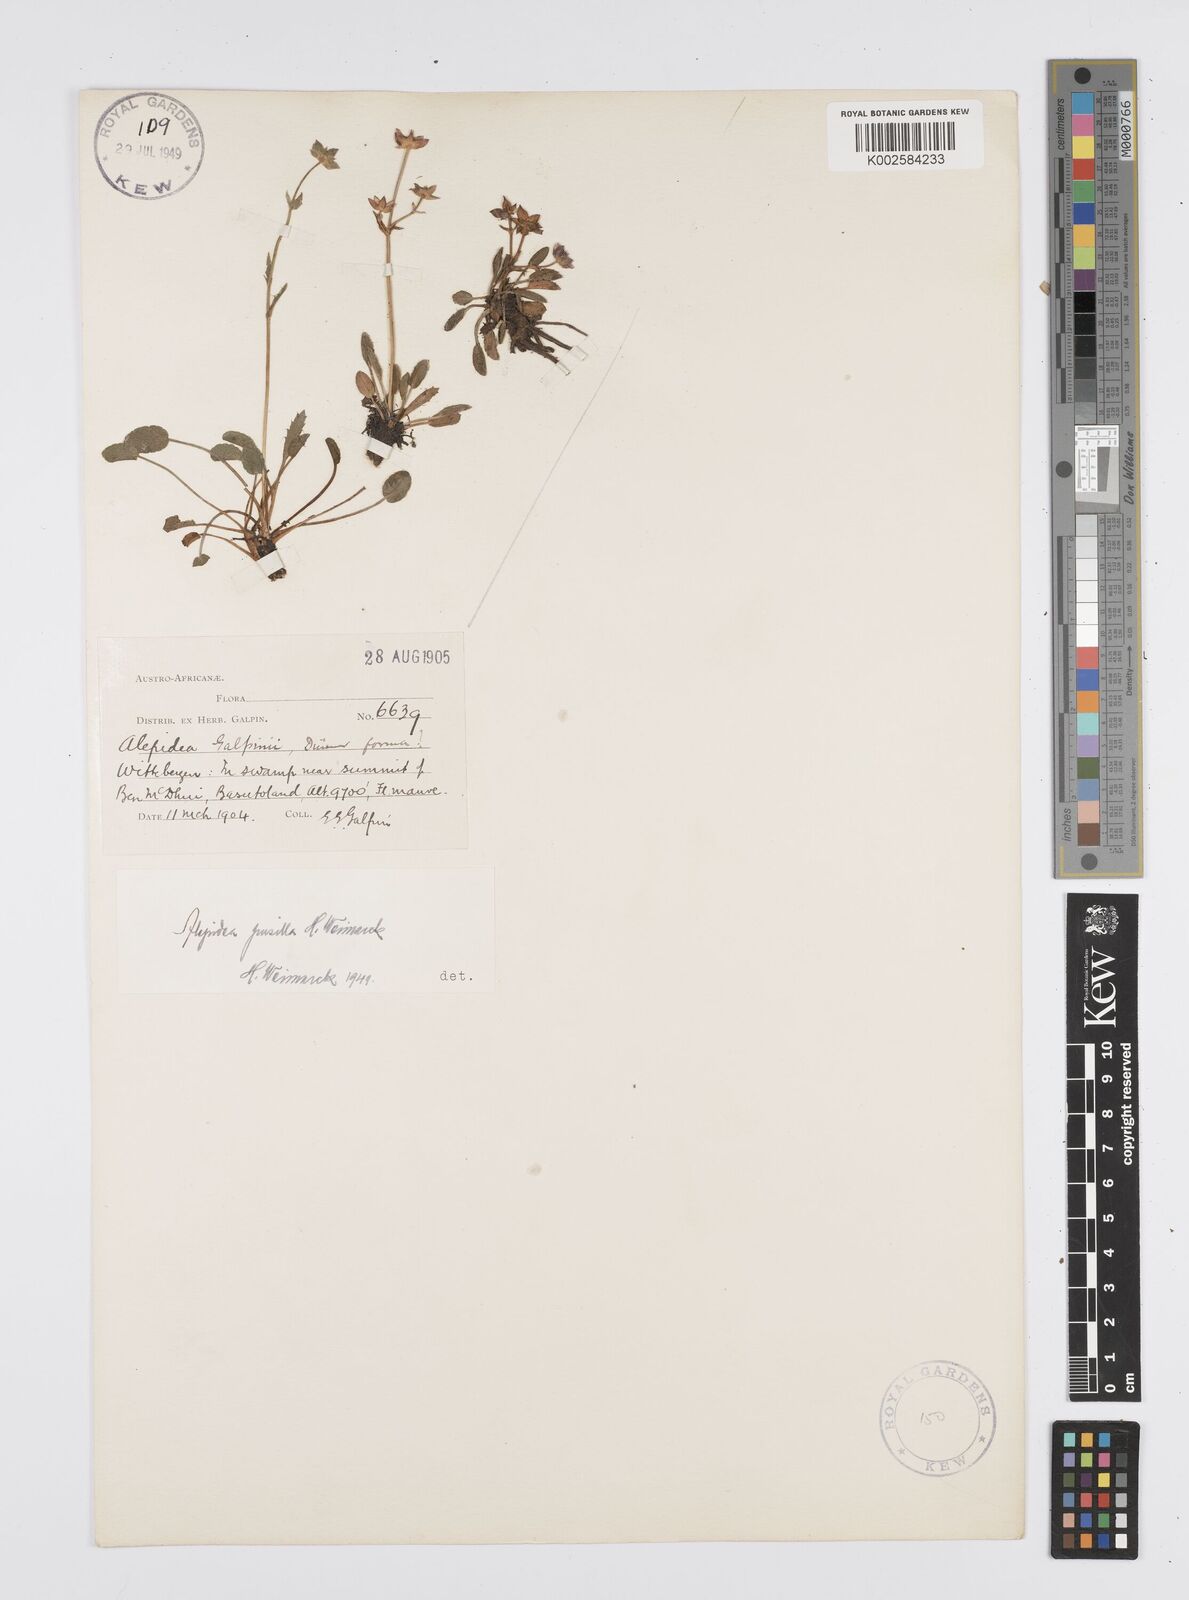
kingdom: Plantae
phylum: Tracheophyta
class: Magnoliopsida
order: Apiales
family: Apiaceae
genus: Alepidea
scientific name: Alepidea pusilla
